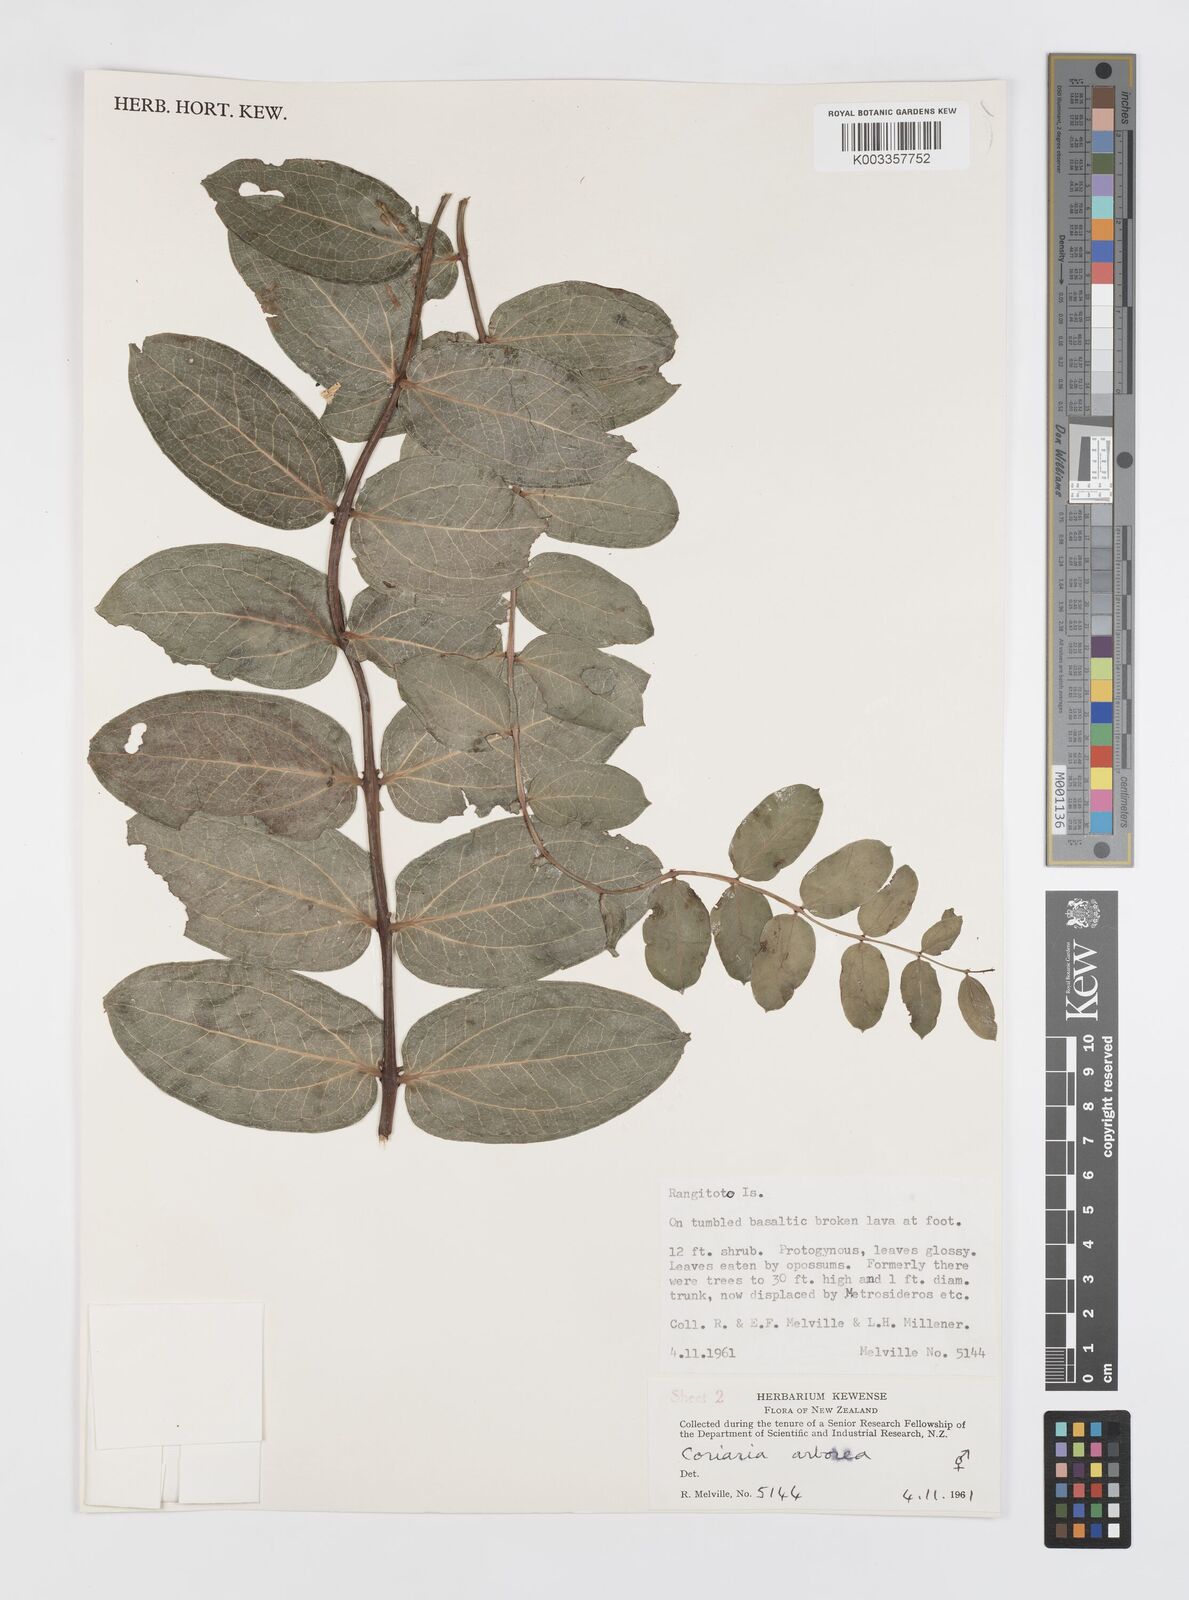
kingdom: Plantae
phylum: Tracheophyta
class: Magnoliopsida
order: Cucurbitales
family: Coriariaceae
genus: Coriaria
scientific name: Coriaria arborea
